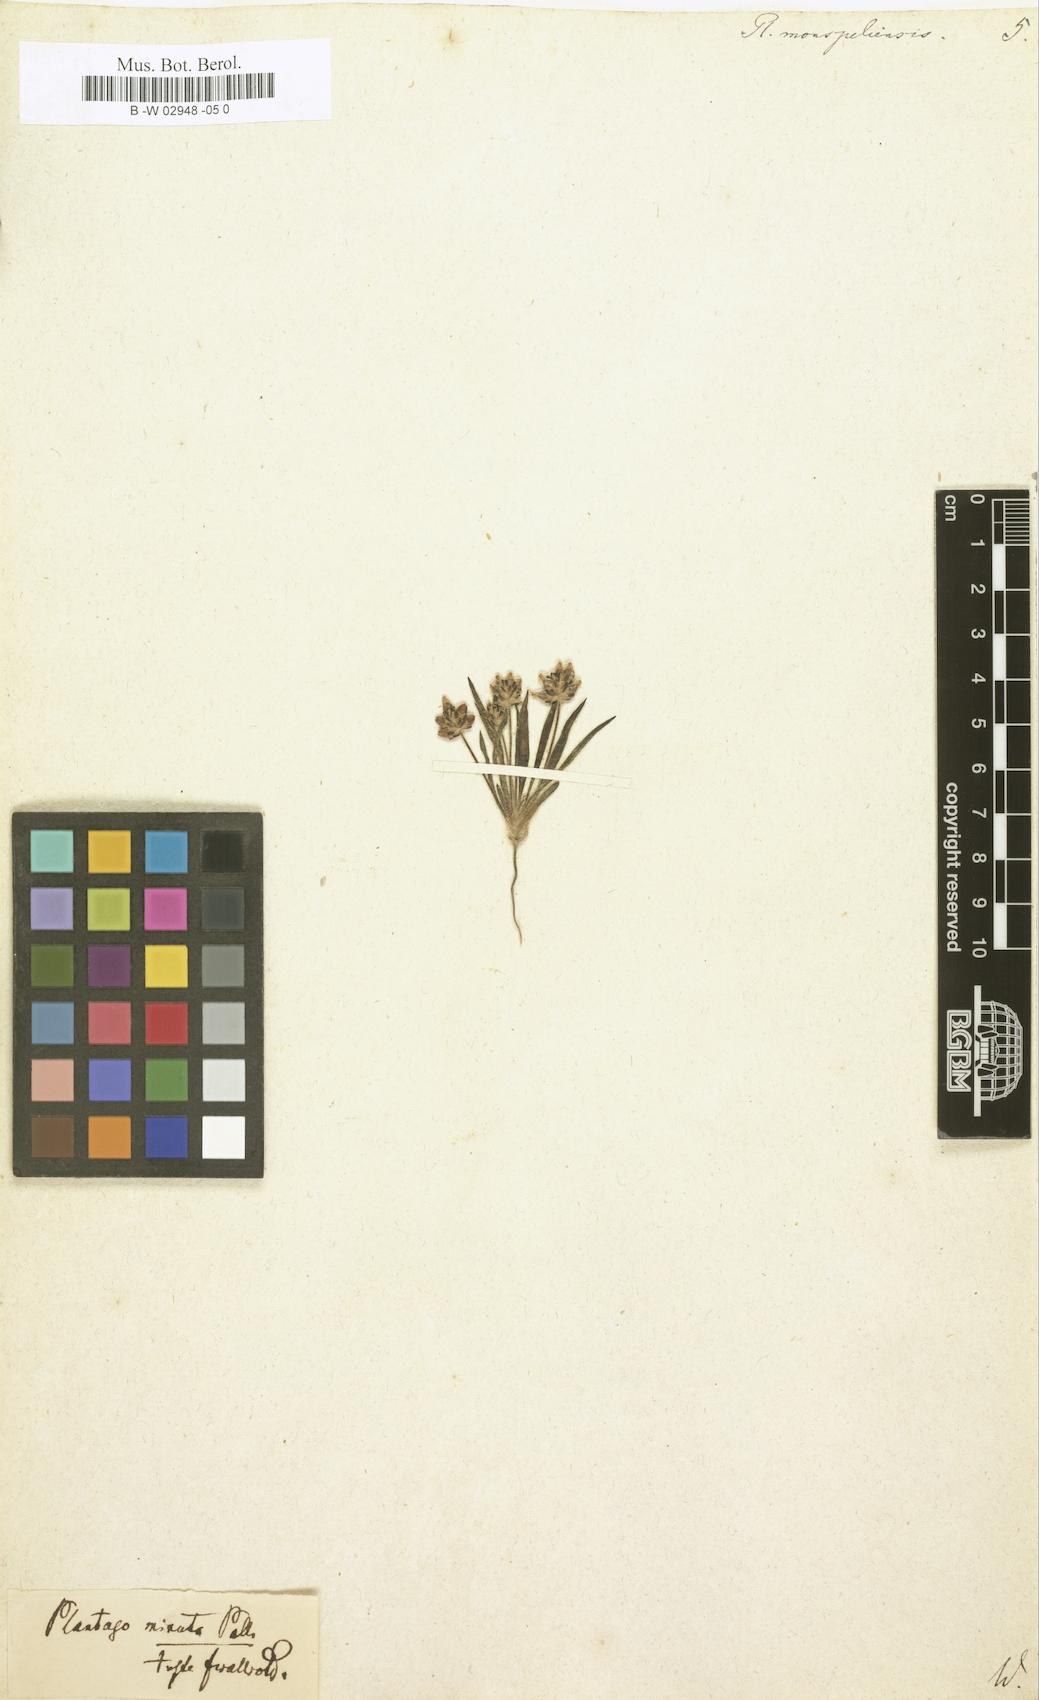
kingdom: Plantae
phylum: Tracheophyta
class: Magnoliopsida
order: Lamiales
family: Plantaginaceae
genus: Plantago
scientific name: Plantago ovata
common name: Blond plantain
